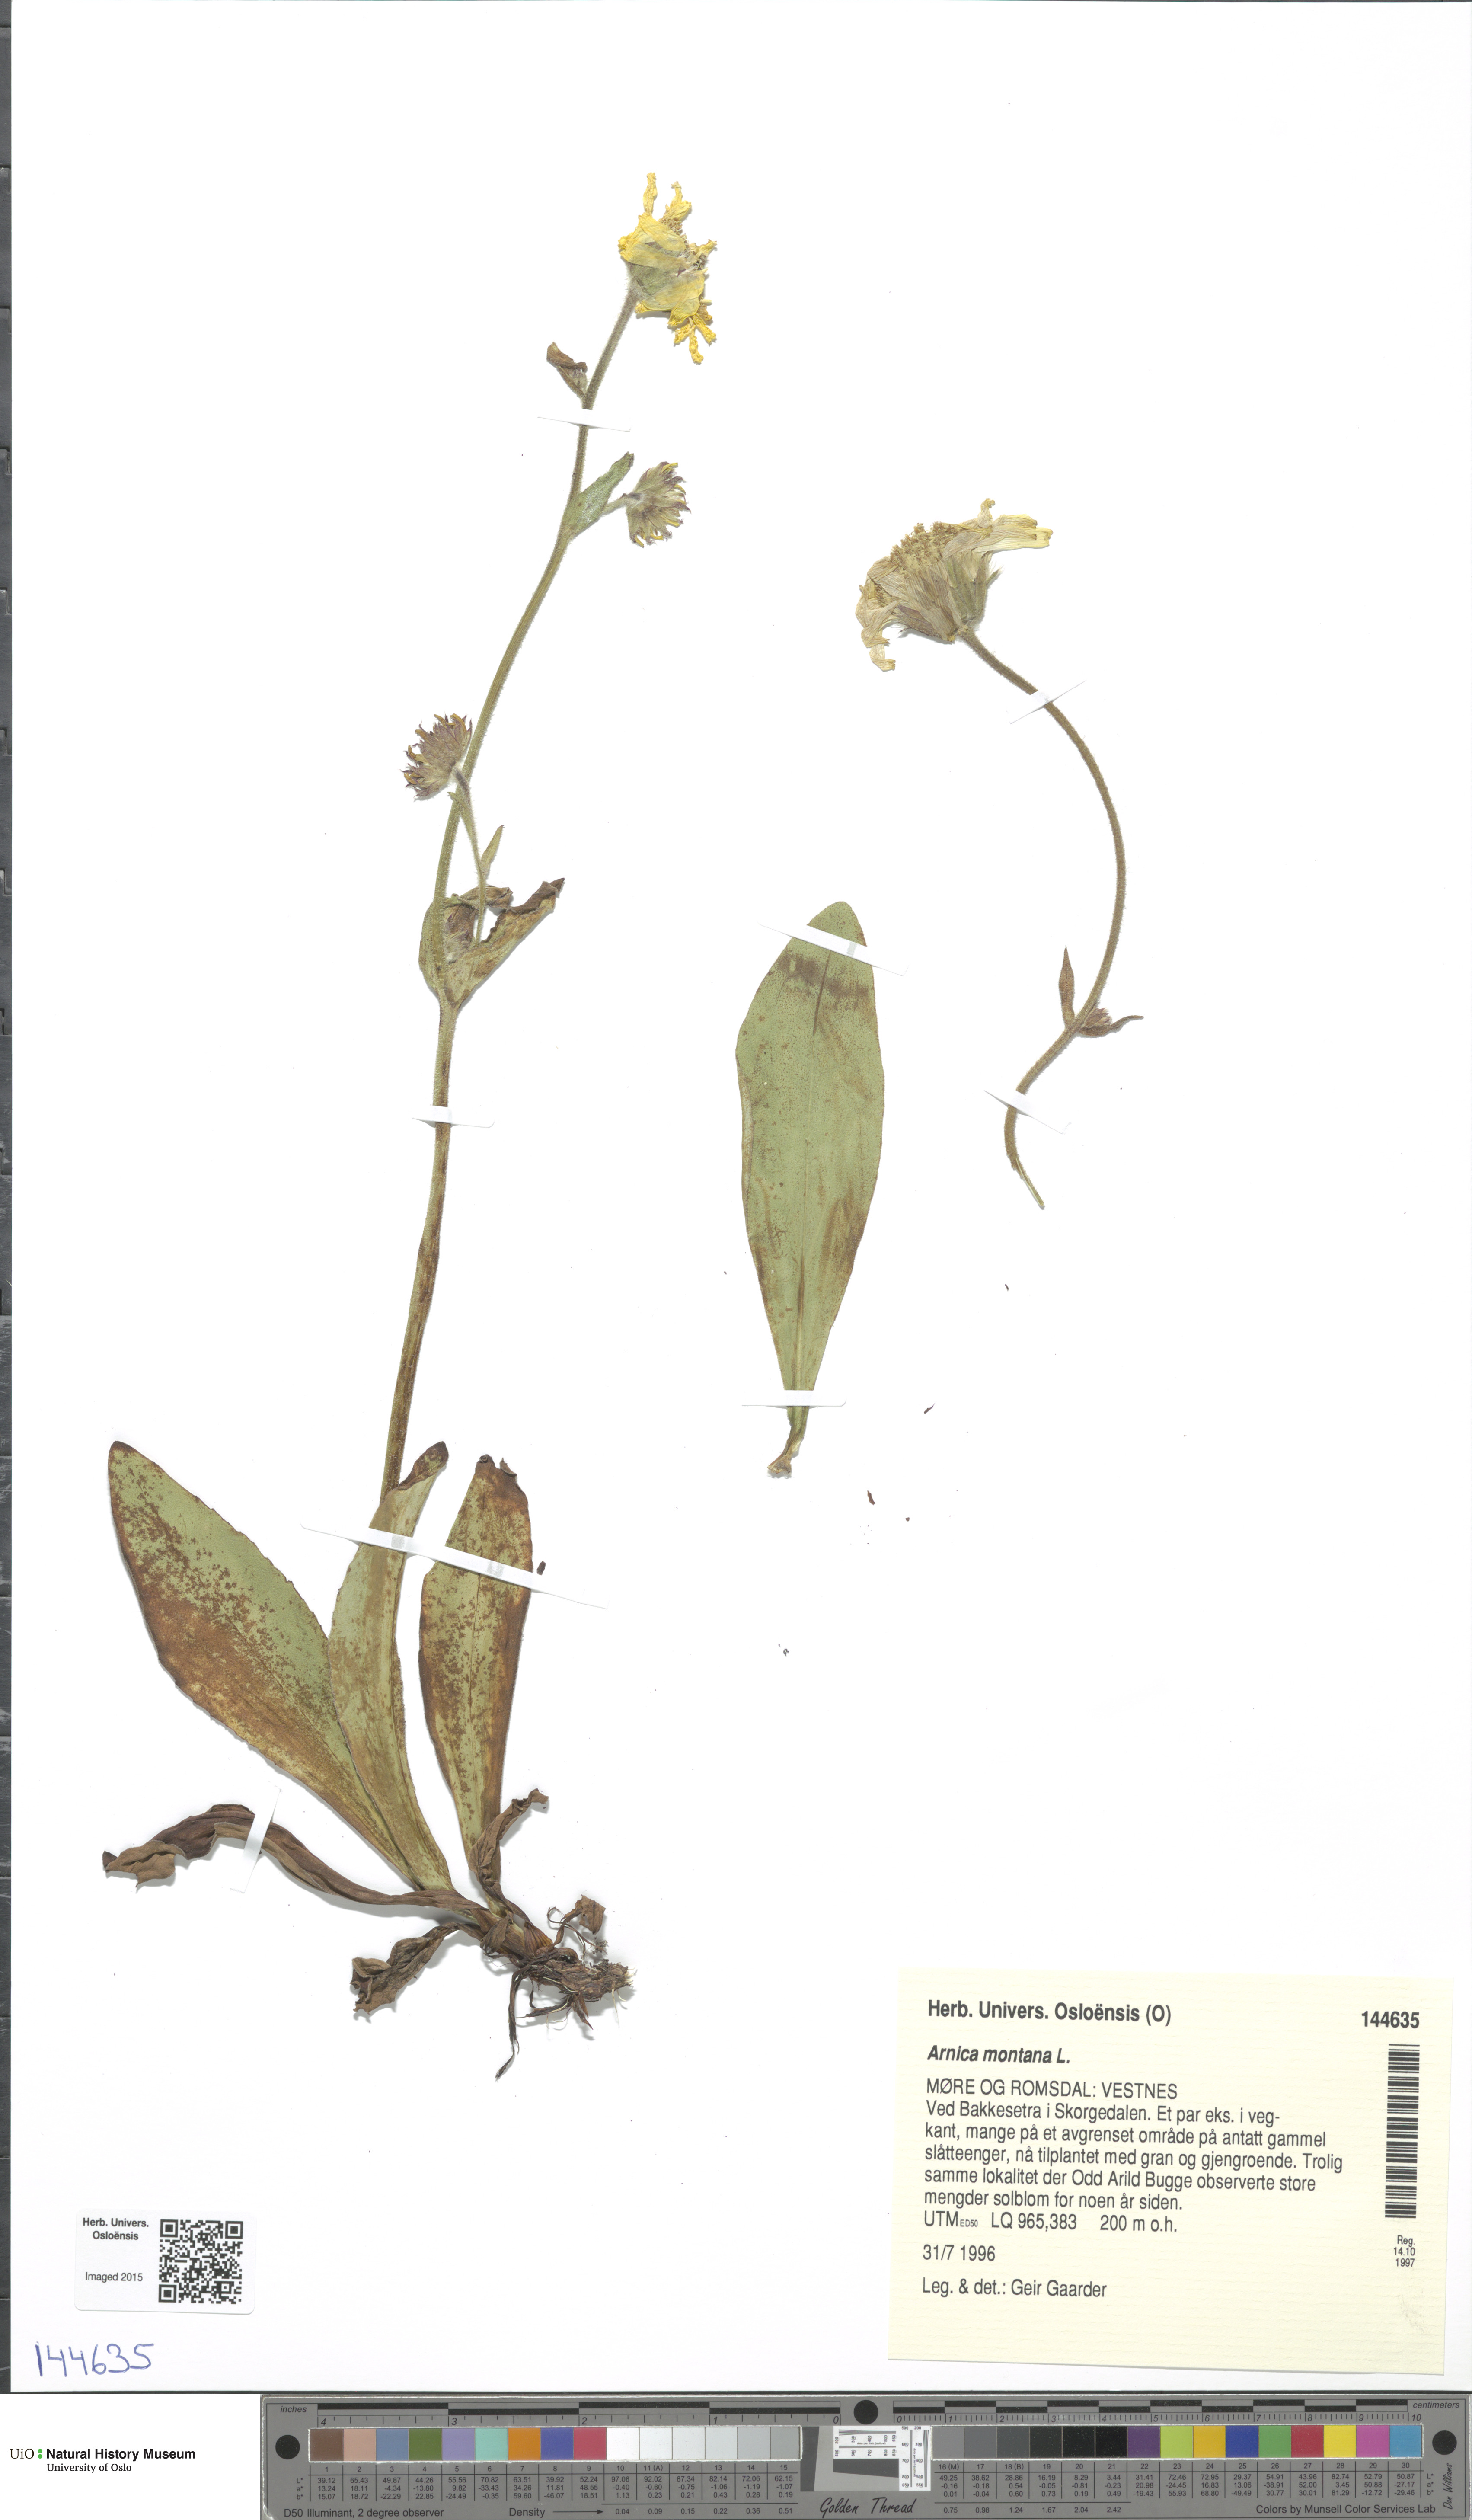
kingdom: Plantae
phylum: Tracheophyta
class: Magnoliopsida
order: Asterales
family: Asteraceae
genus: Arnica
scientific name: Arnica montana
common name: Leopard's bane
